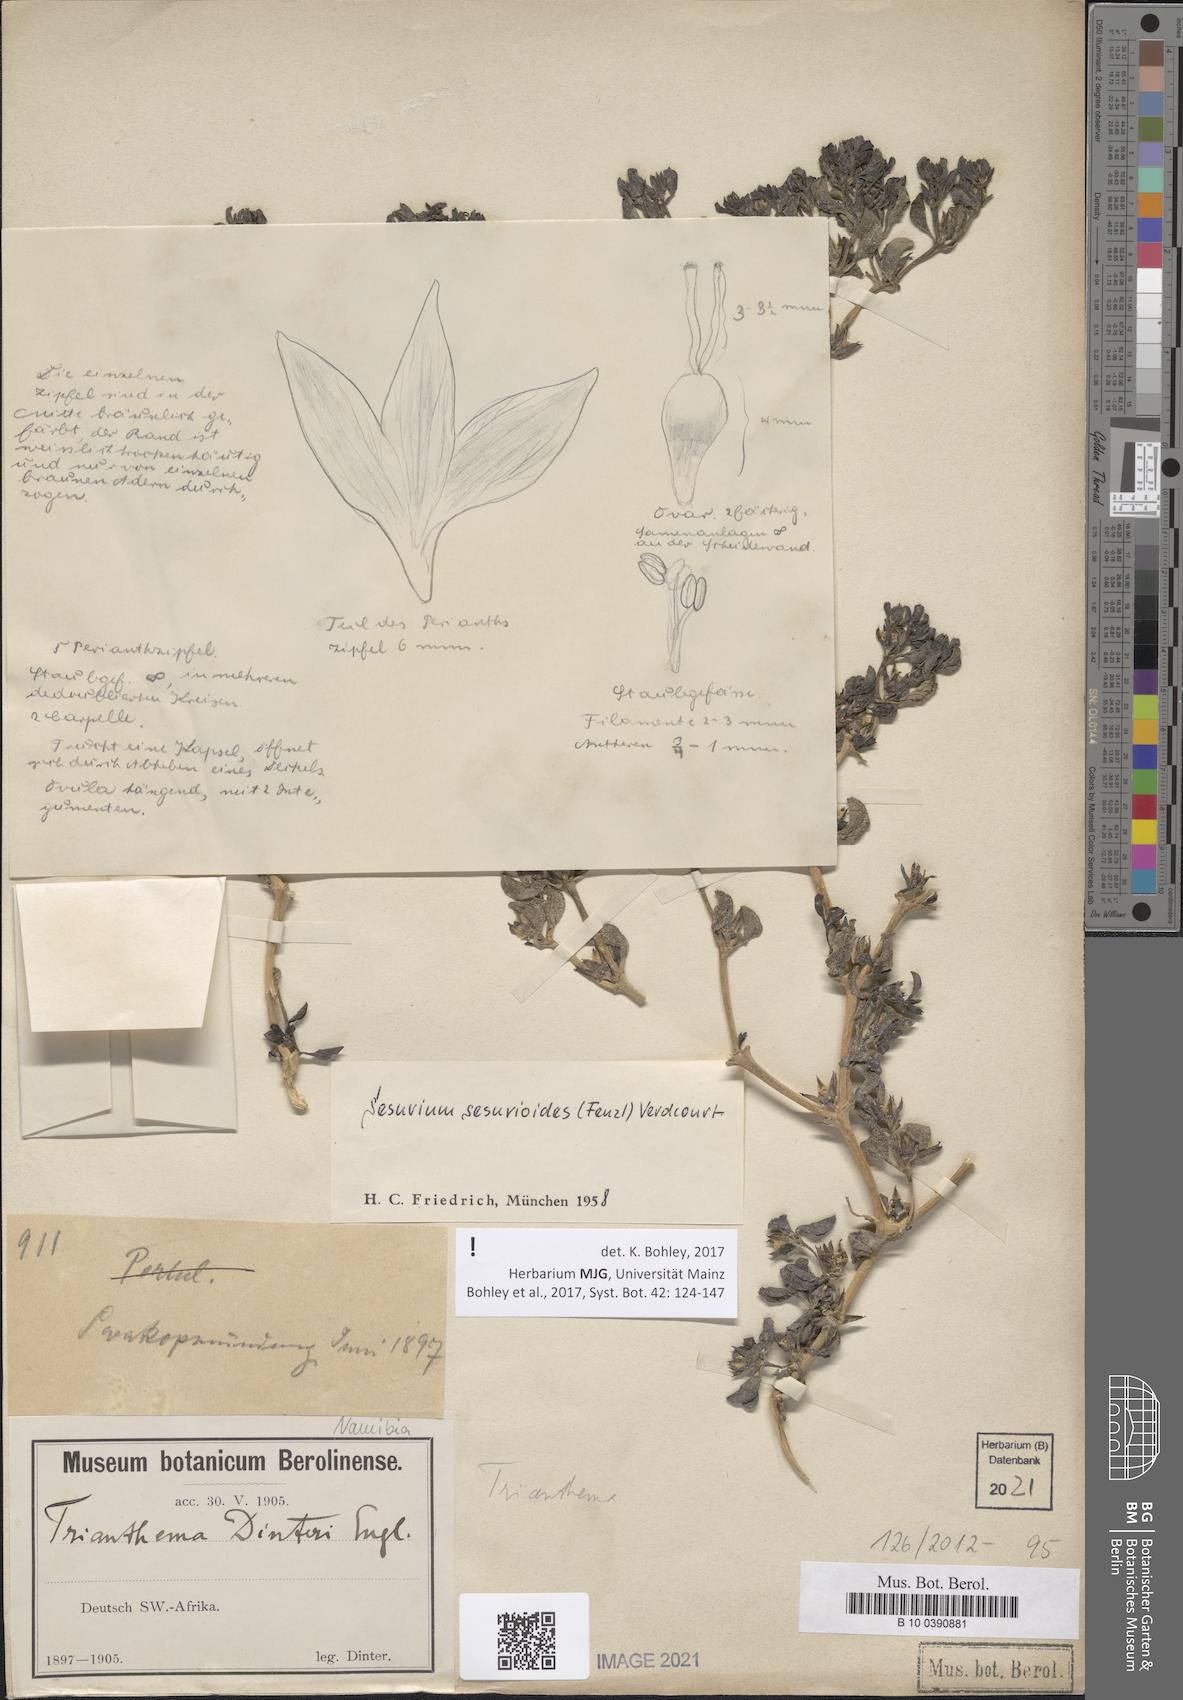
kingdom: Plantae
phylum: Tracheophyta
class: Magnoliopsida
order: Caryophyllales
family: Aizoaceae
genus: Sesuvium
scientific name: Sesuvium sesuvioides
